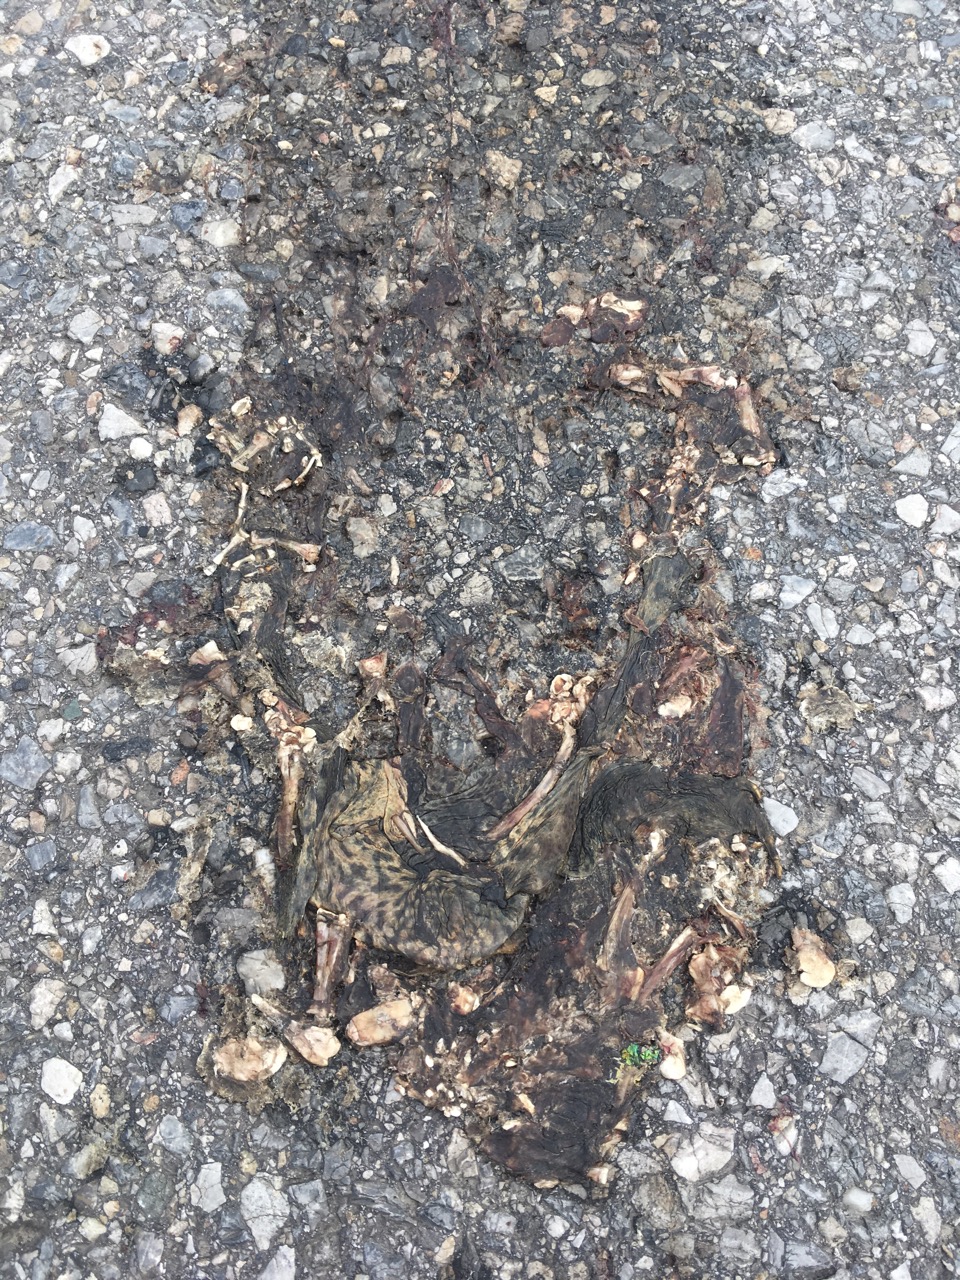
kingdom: Animalia
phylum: Chordata
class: Amphibia
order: Anura
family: Bufonidae
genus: Bufo
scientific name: Bufo bufo
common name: Common toad
